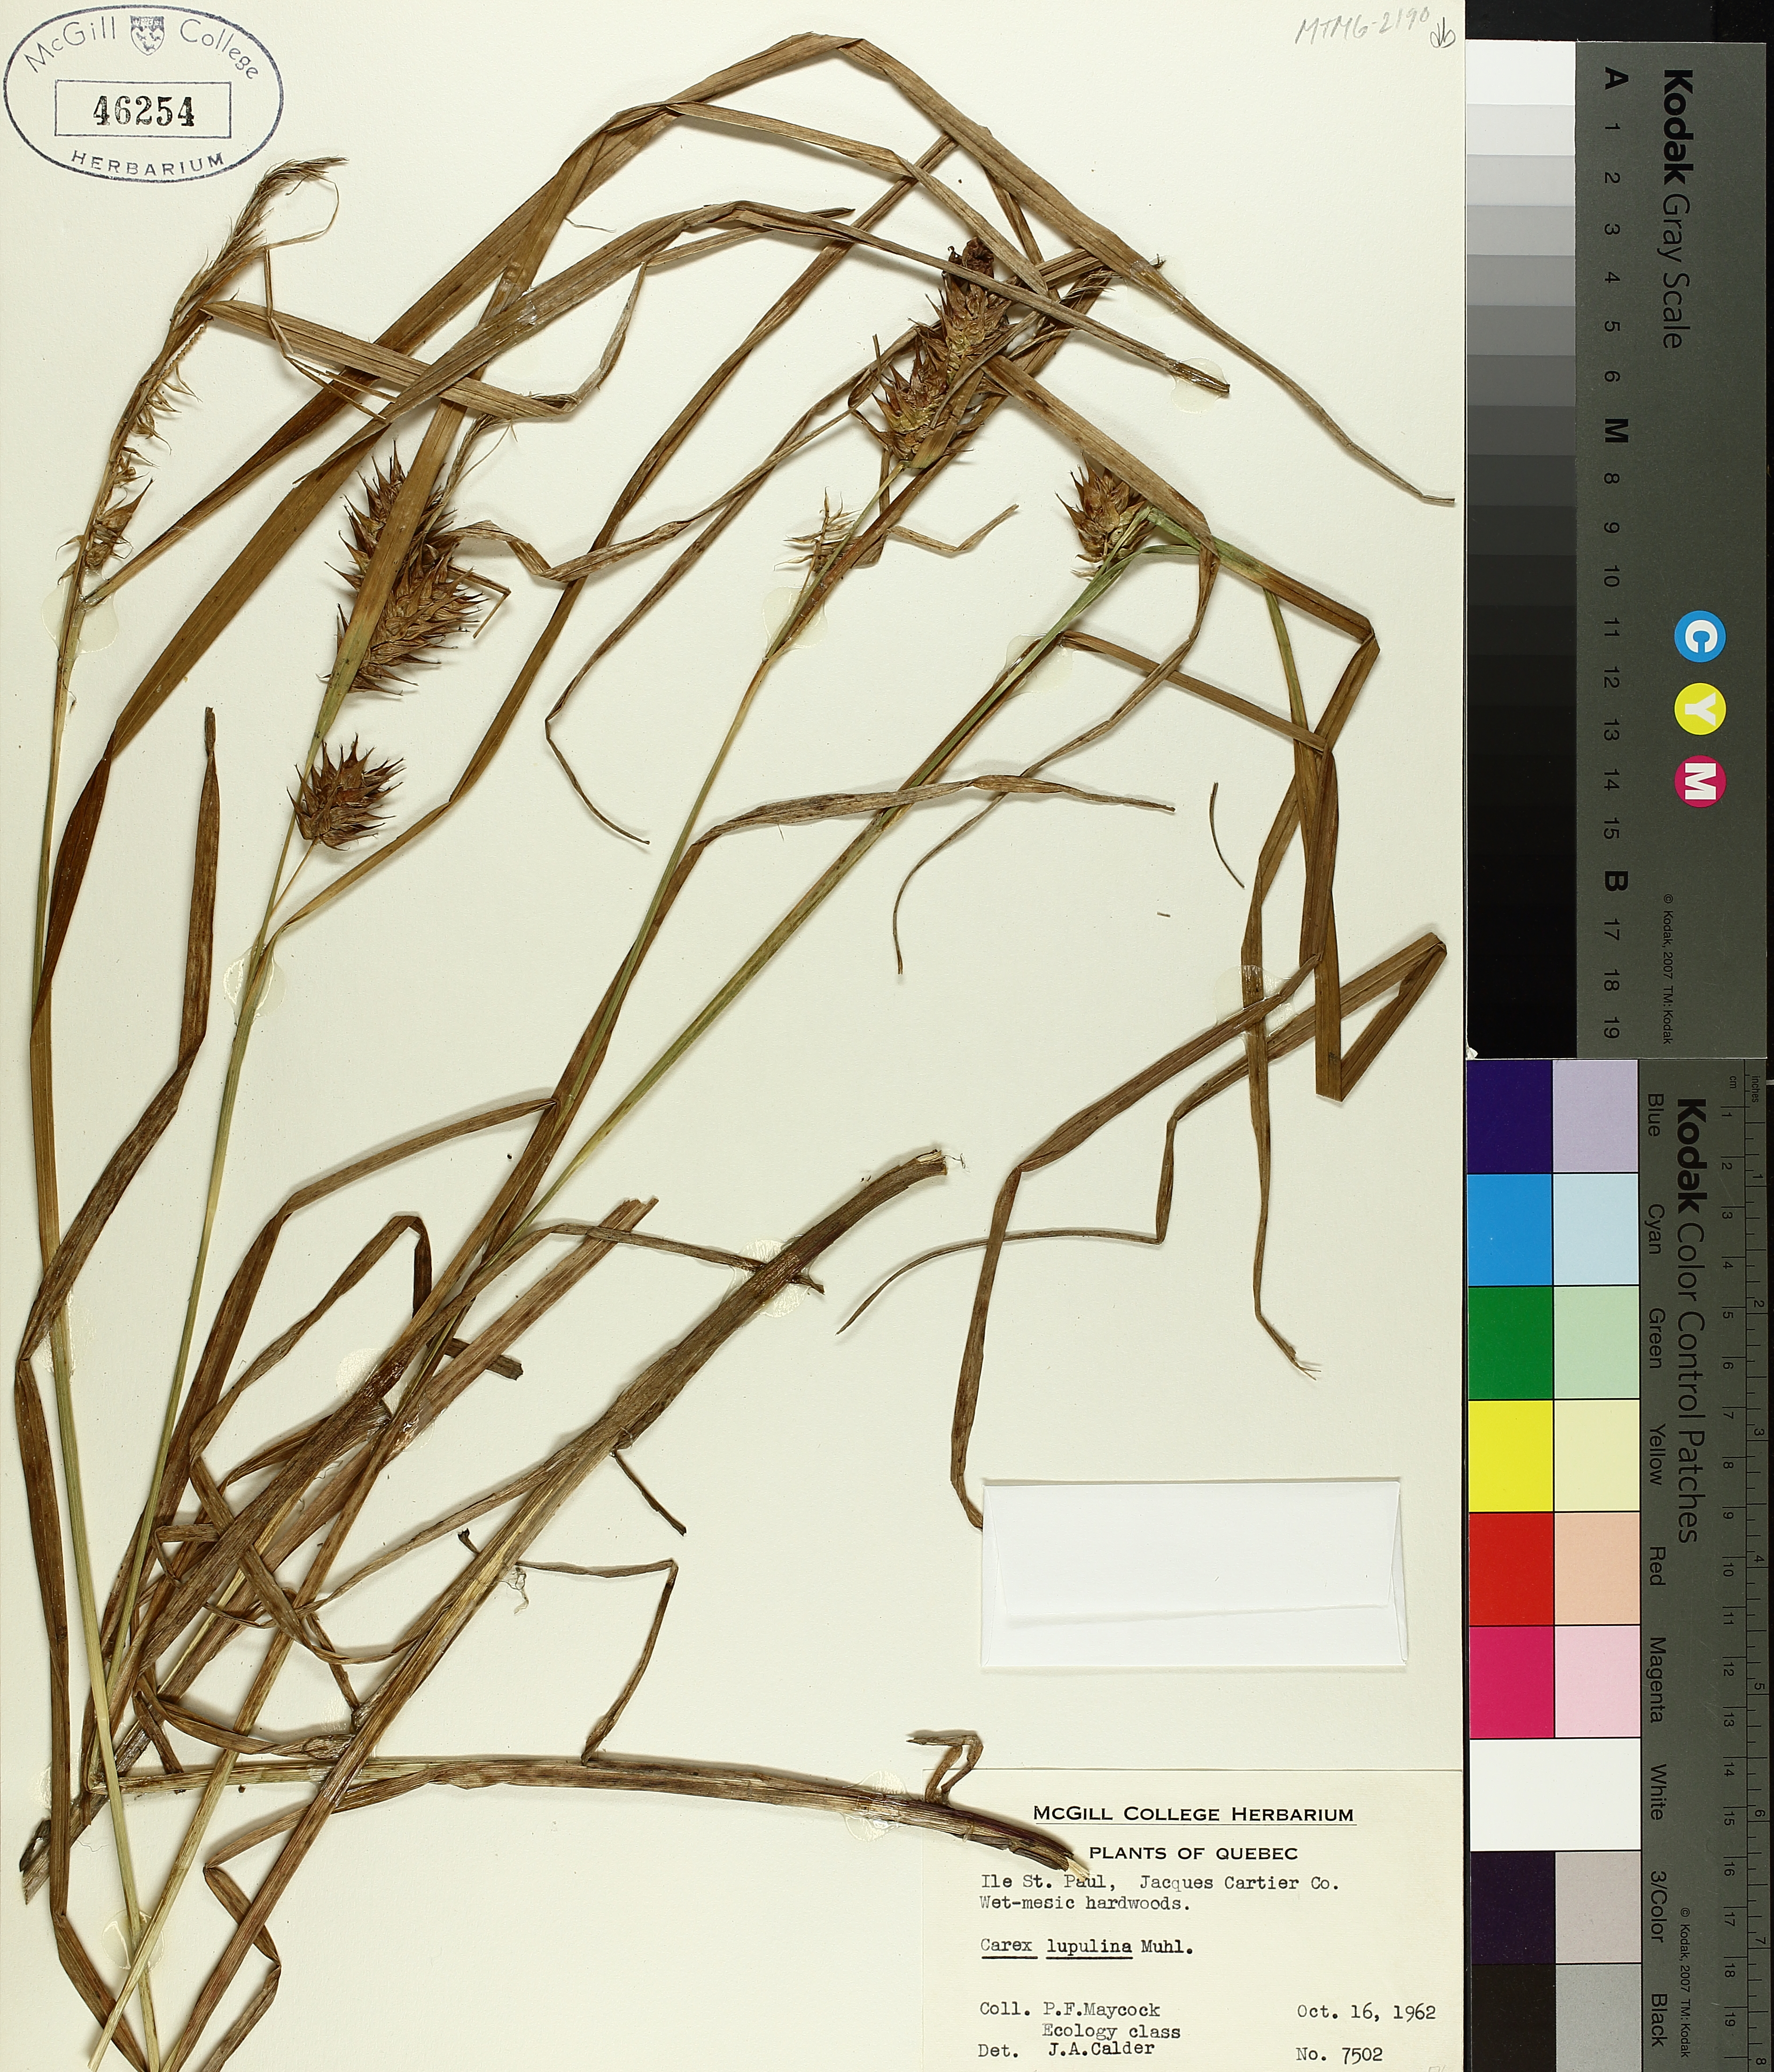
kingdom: Plantae
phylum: Tracheophyta
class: Liliopsida
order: Poales
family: Cyperaceae
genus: Carex
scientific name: Carex lupulina
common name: Hop sedge
